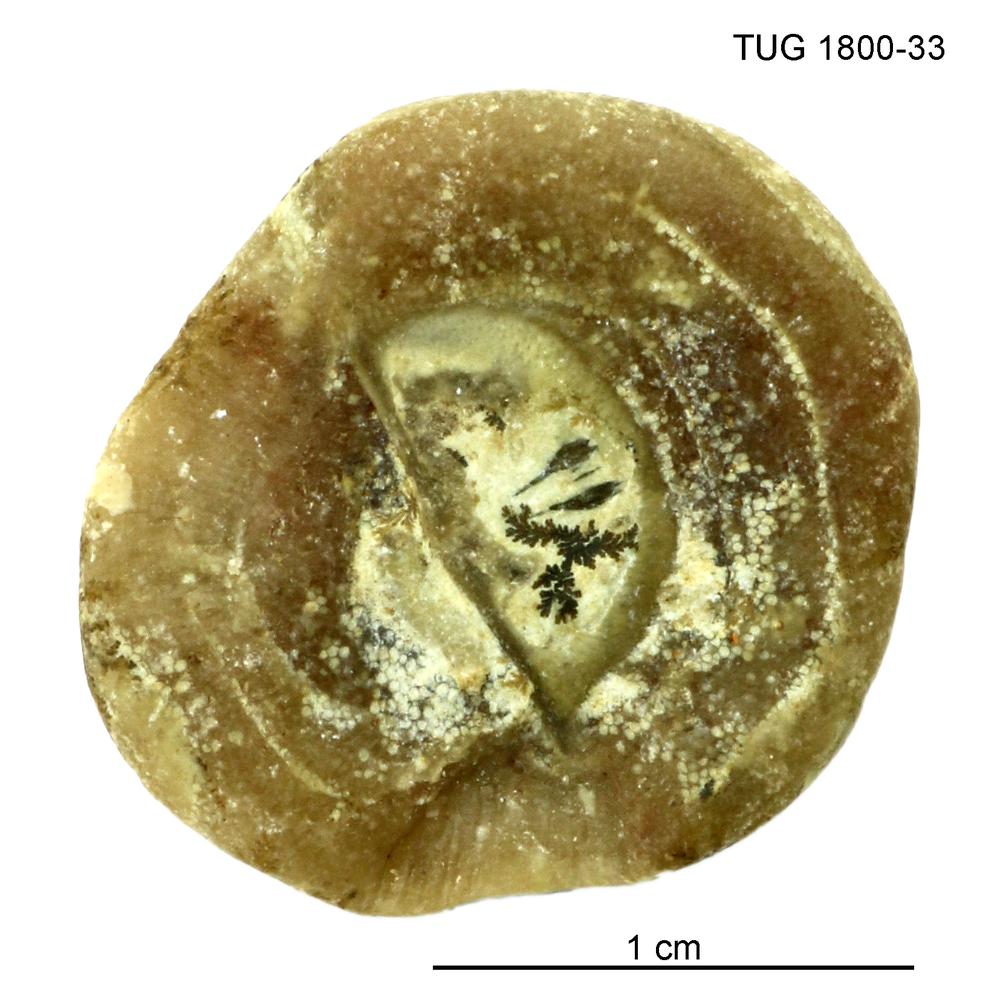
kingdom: Animalia
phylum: Bryozoa
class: Stenolaemata
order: Trepostomatida
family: Diplotrypidae
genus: Diplotrypa
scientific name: Diplotrypa
